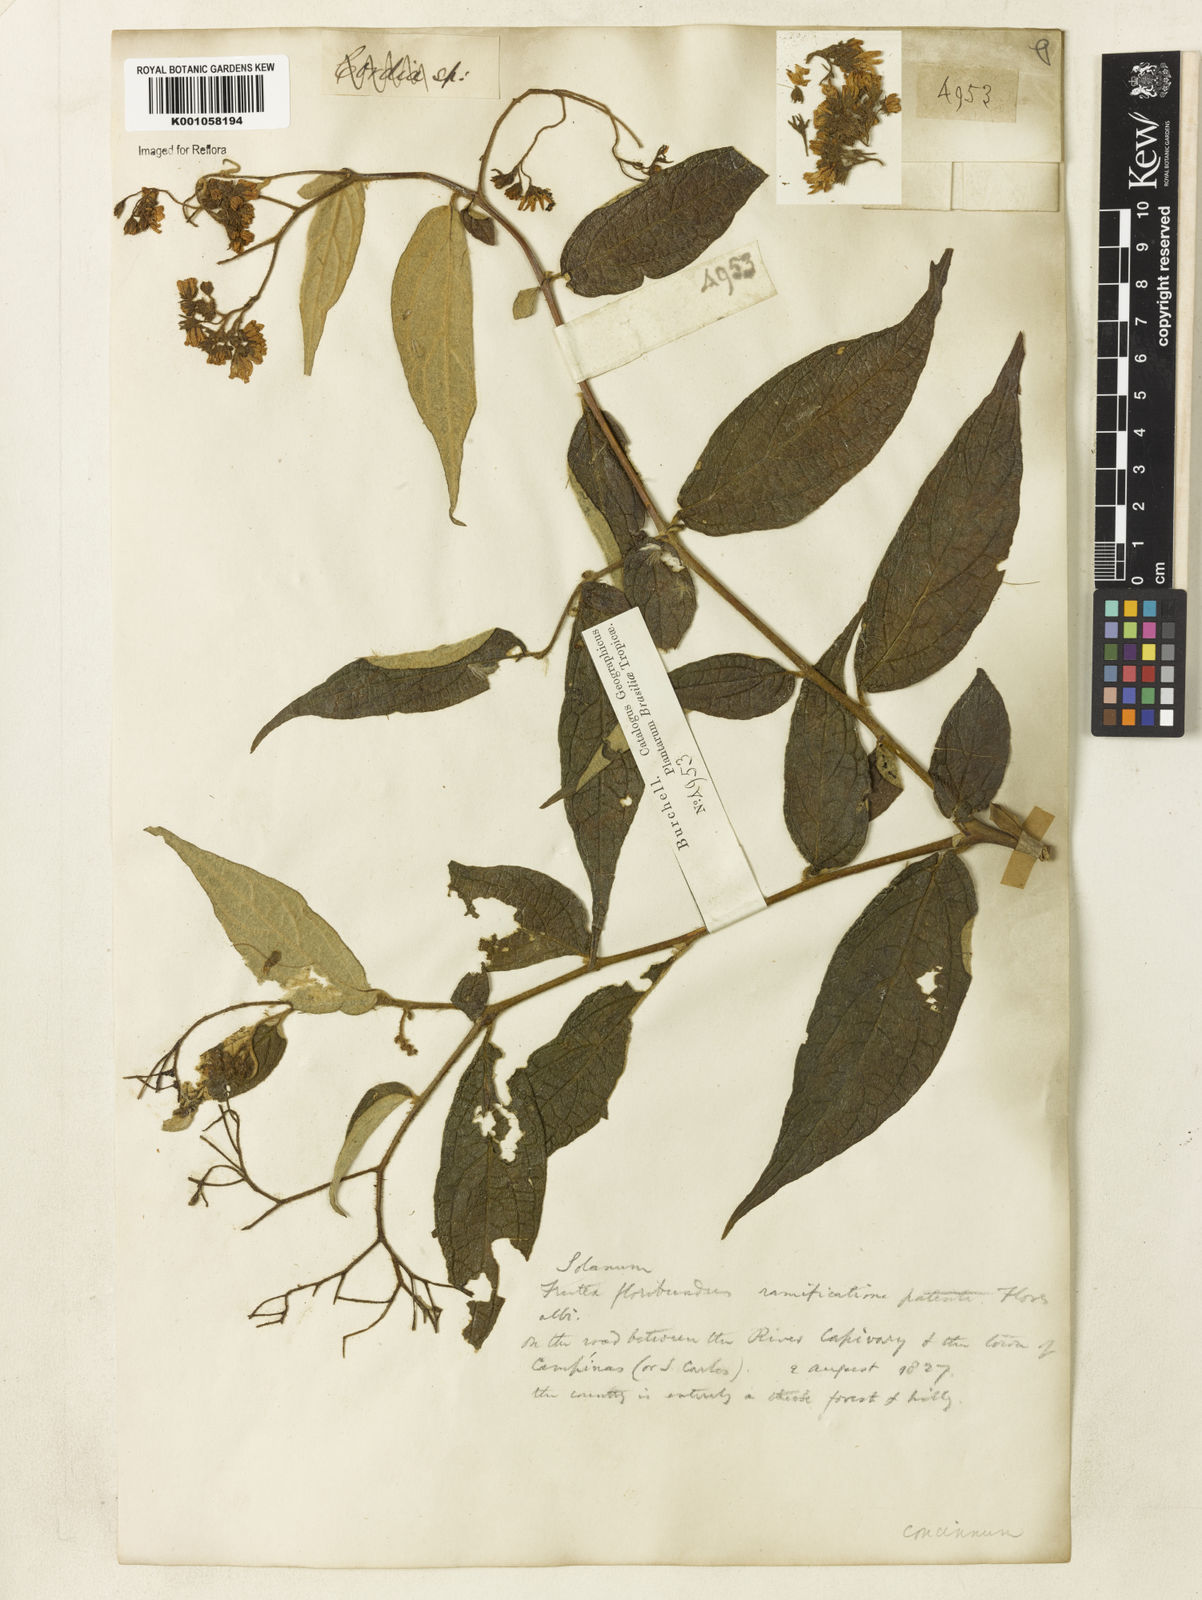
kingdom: Plantae
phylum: Tracheophyta
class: Magnoliopsida
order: Solanales
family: Solanaceae
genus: Solanum
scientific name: Solanum concinnum
